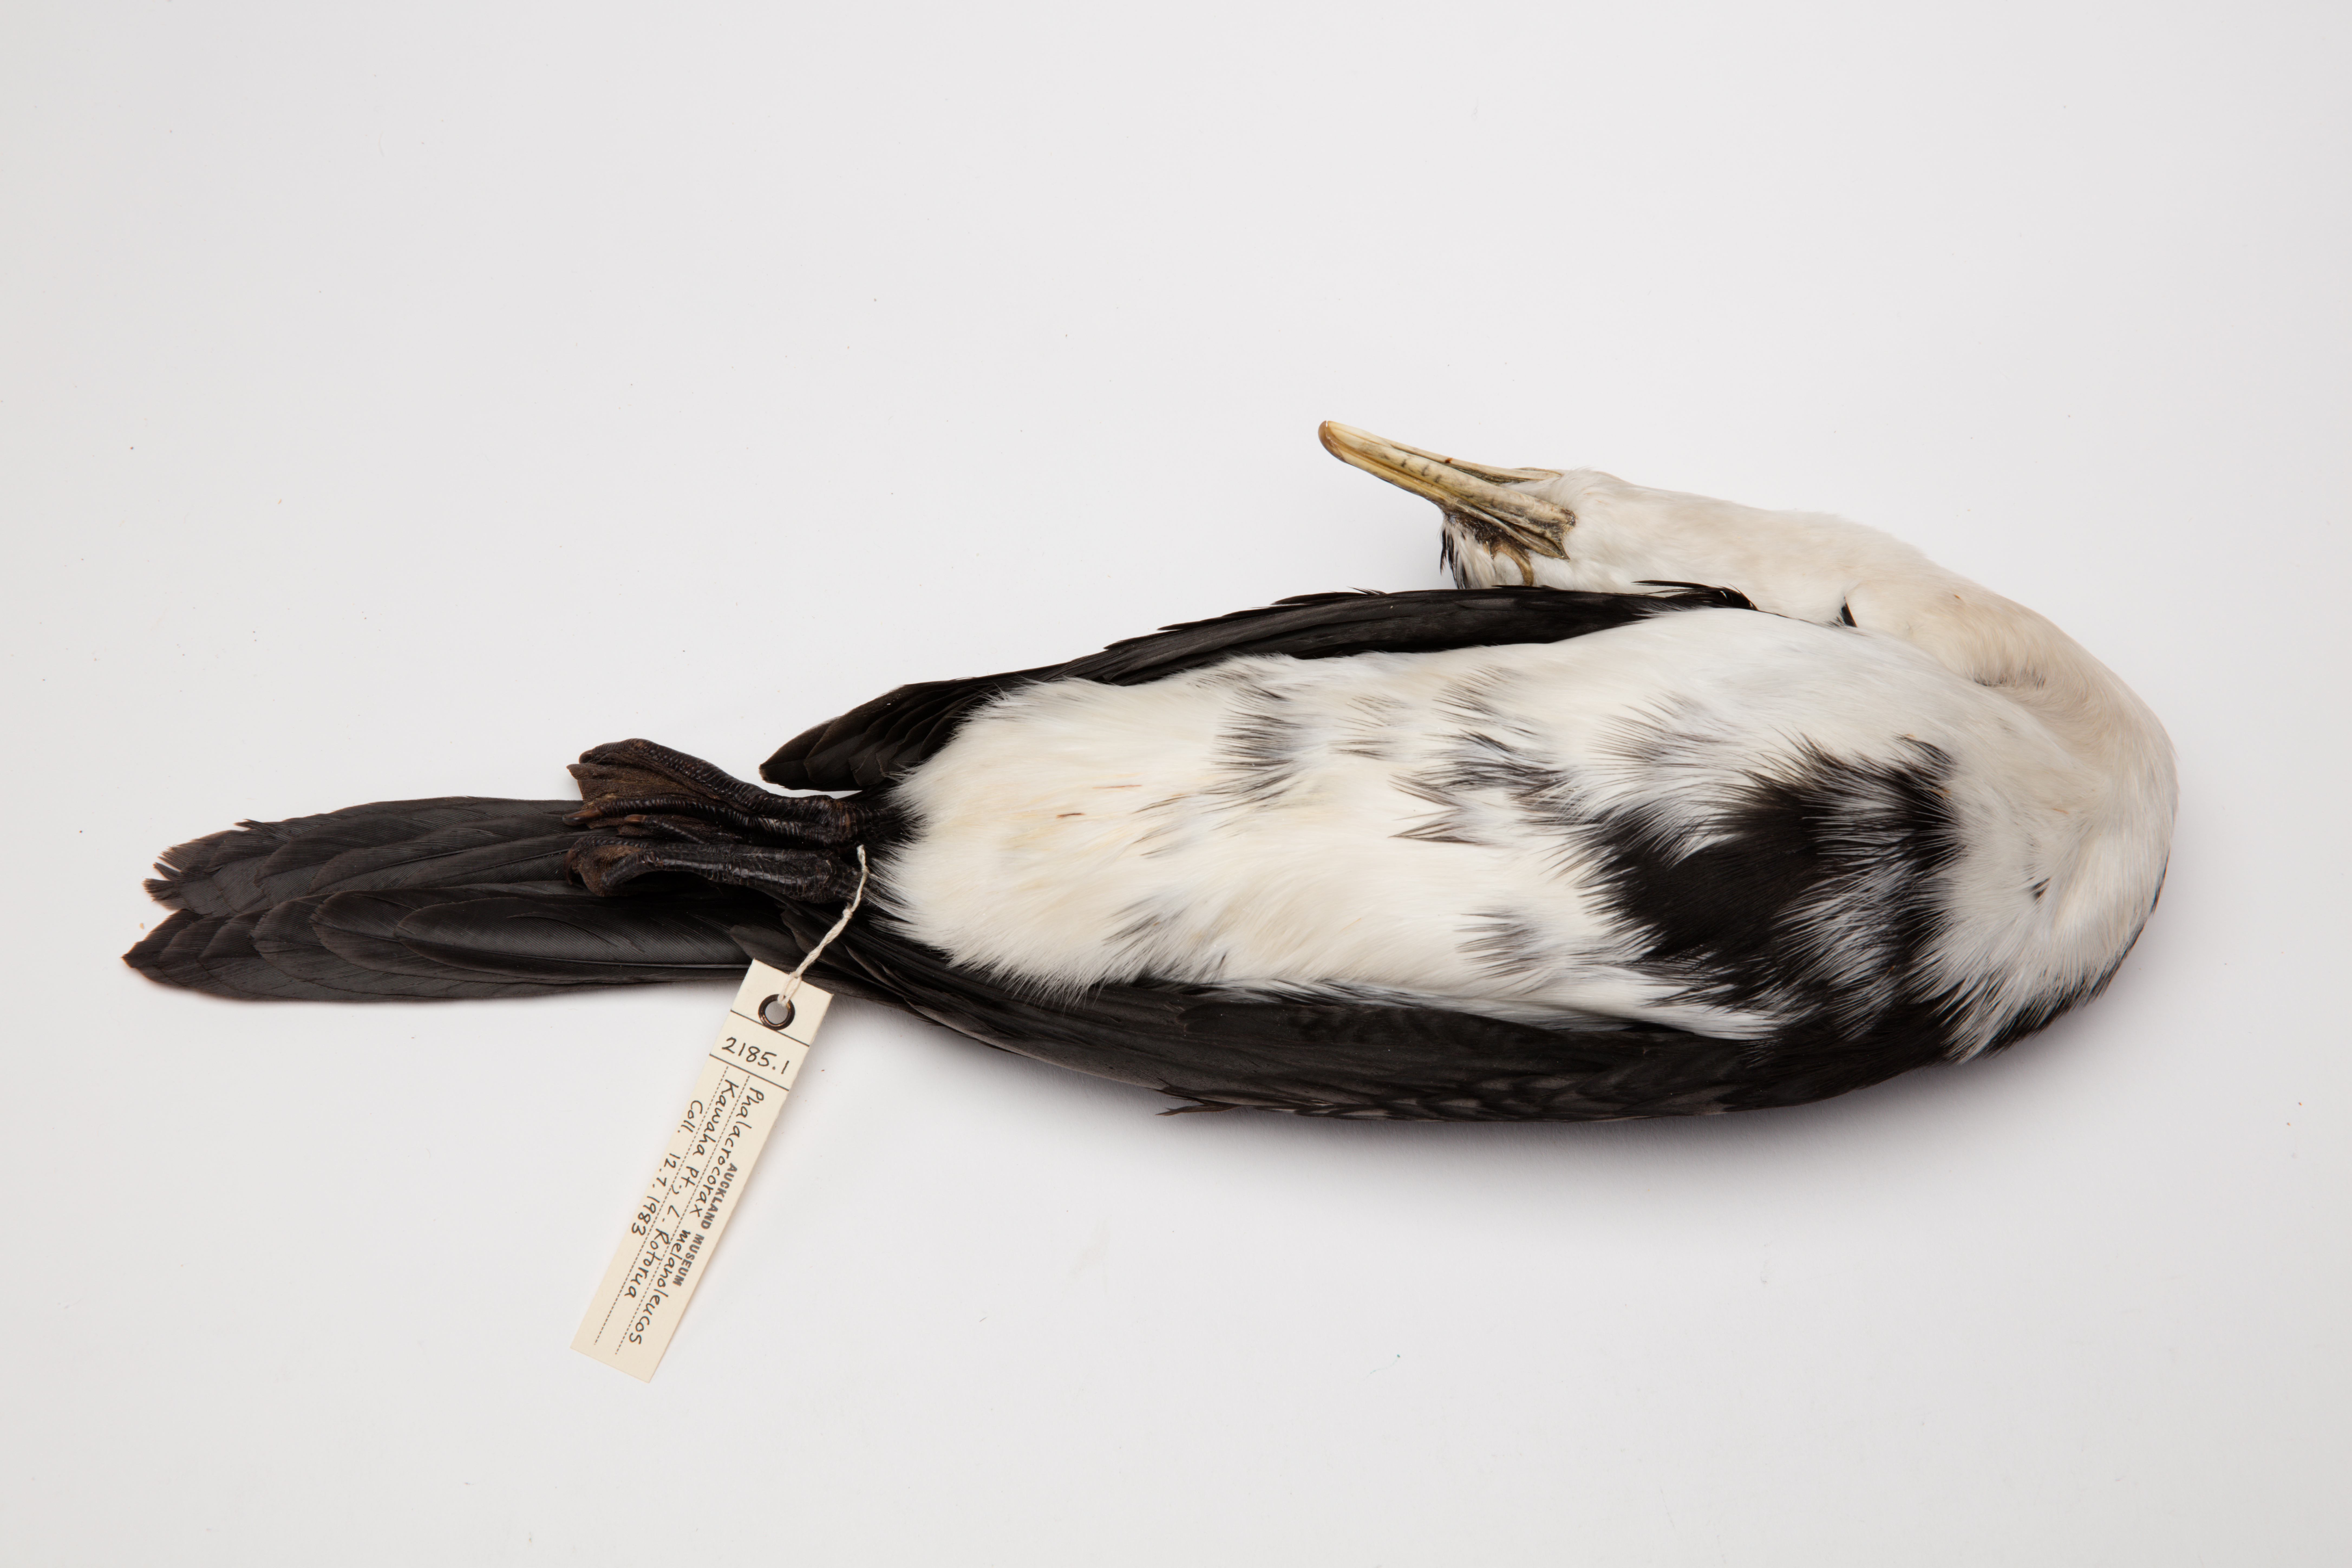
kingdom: Animalia
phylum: Chordata
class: Aves
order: Suliformes
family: Phalacrocoracidae
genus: Microcarbo
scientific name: Microcarbo melanoleucos
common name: Little pied cormorant
